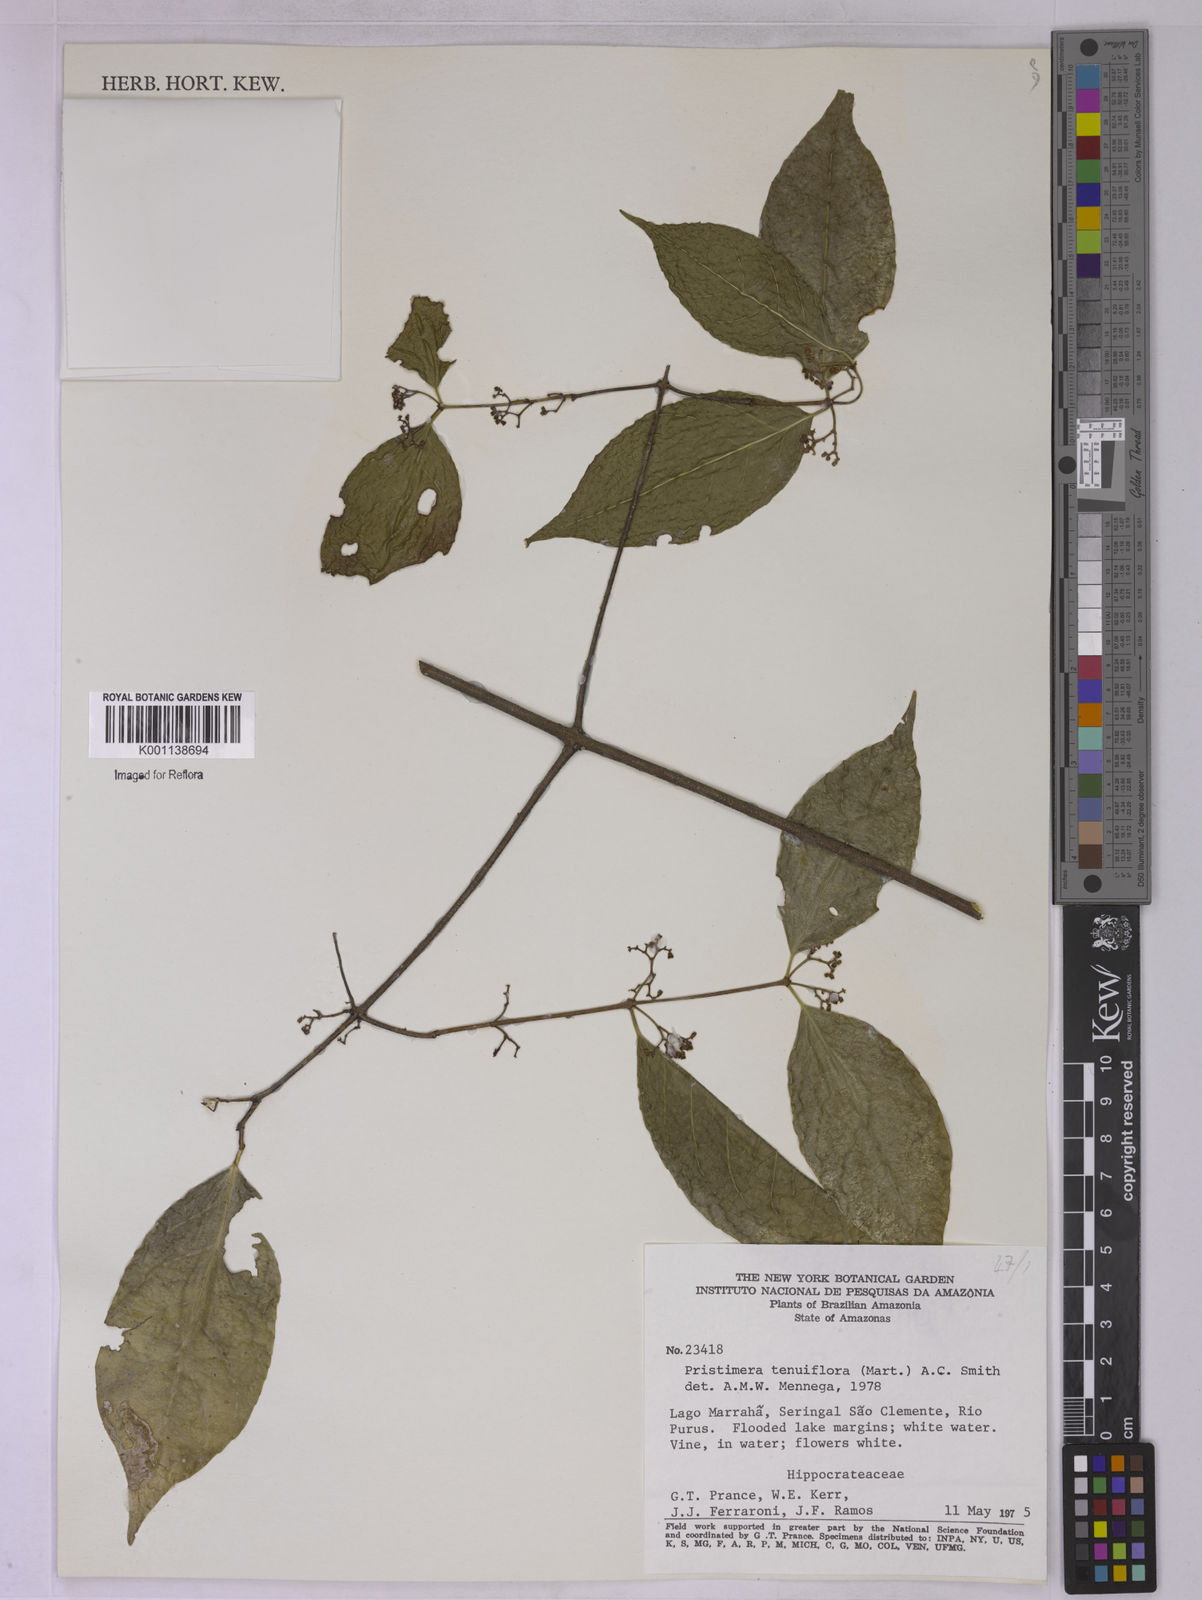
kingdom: Plantae
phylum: Tracheophyta
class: Magnoliopsida
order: Celastrales
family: Celastraceae
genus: Pristimera
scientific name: Pristimera tenuiflora
